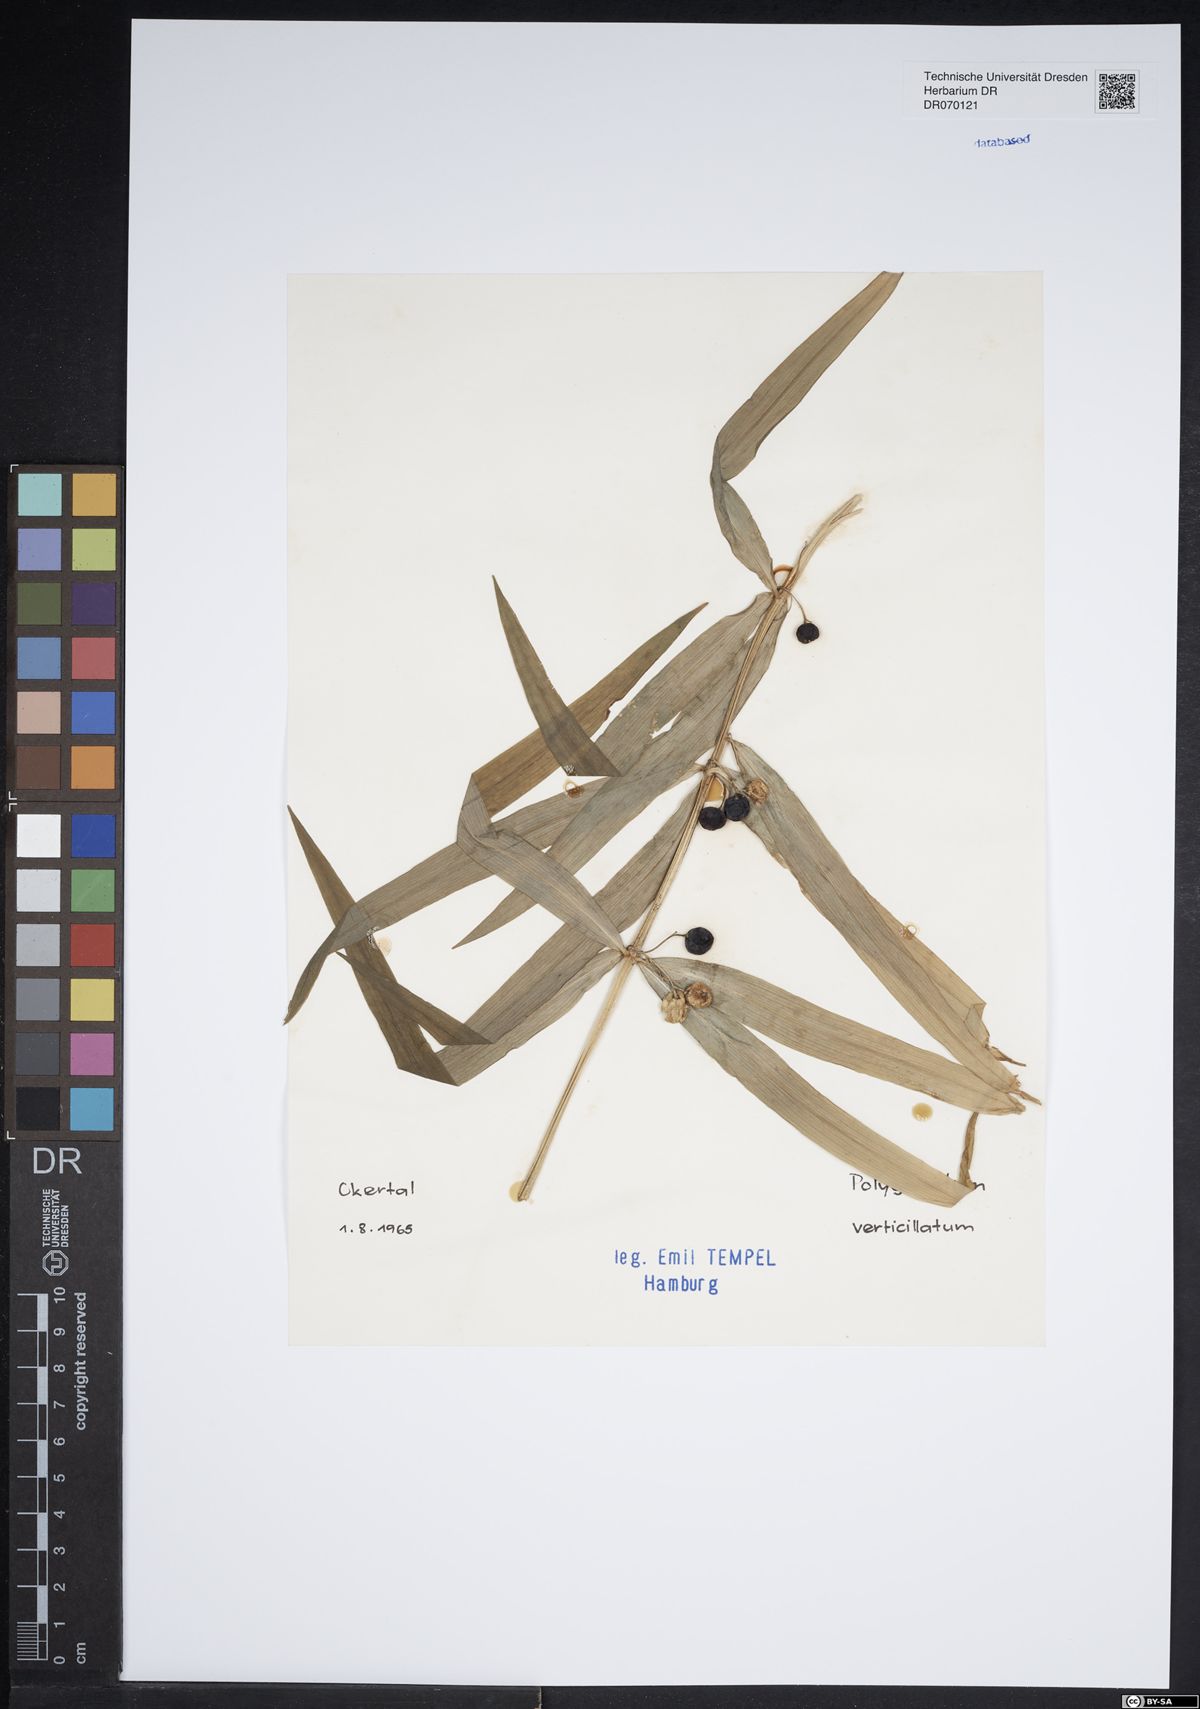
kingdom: Plantae
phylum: Tracheophyta
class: Liliopsida
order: Asparagales
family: Asparagaceae
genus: Polygonatum
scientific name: Polygonatum verticillatum
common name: Whorled solomon's-seal
